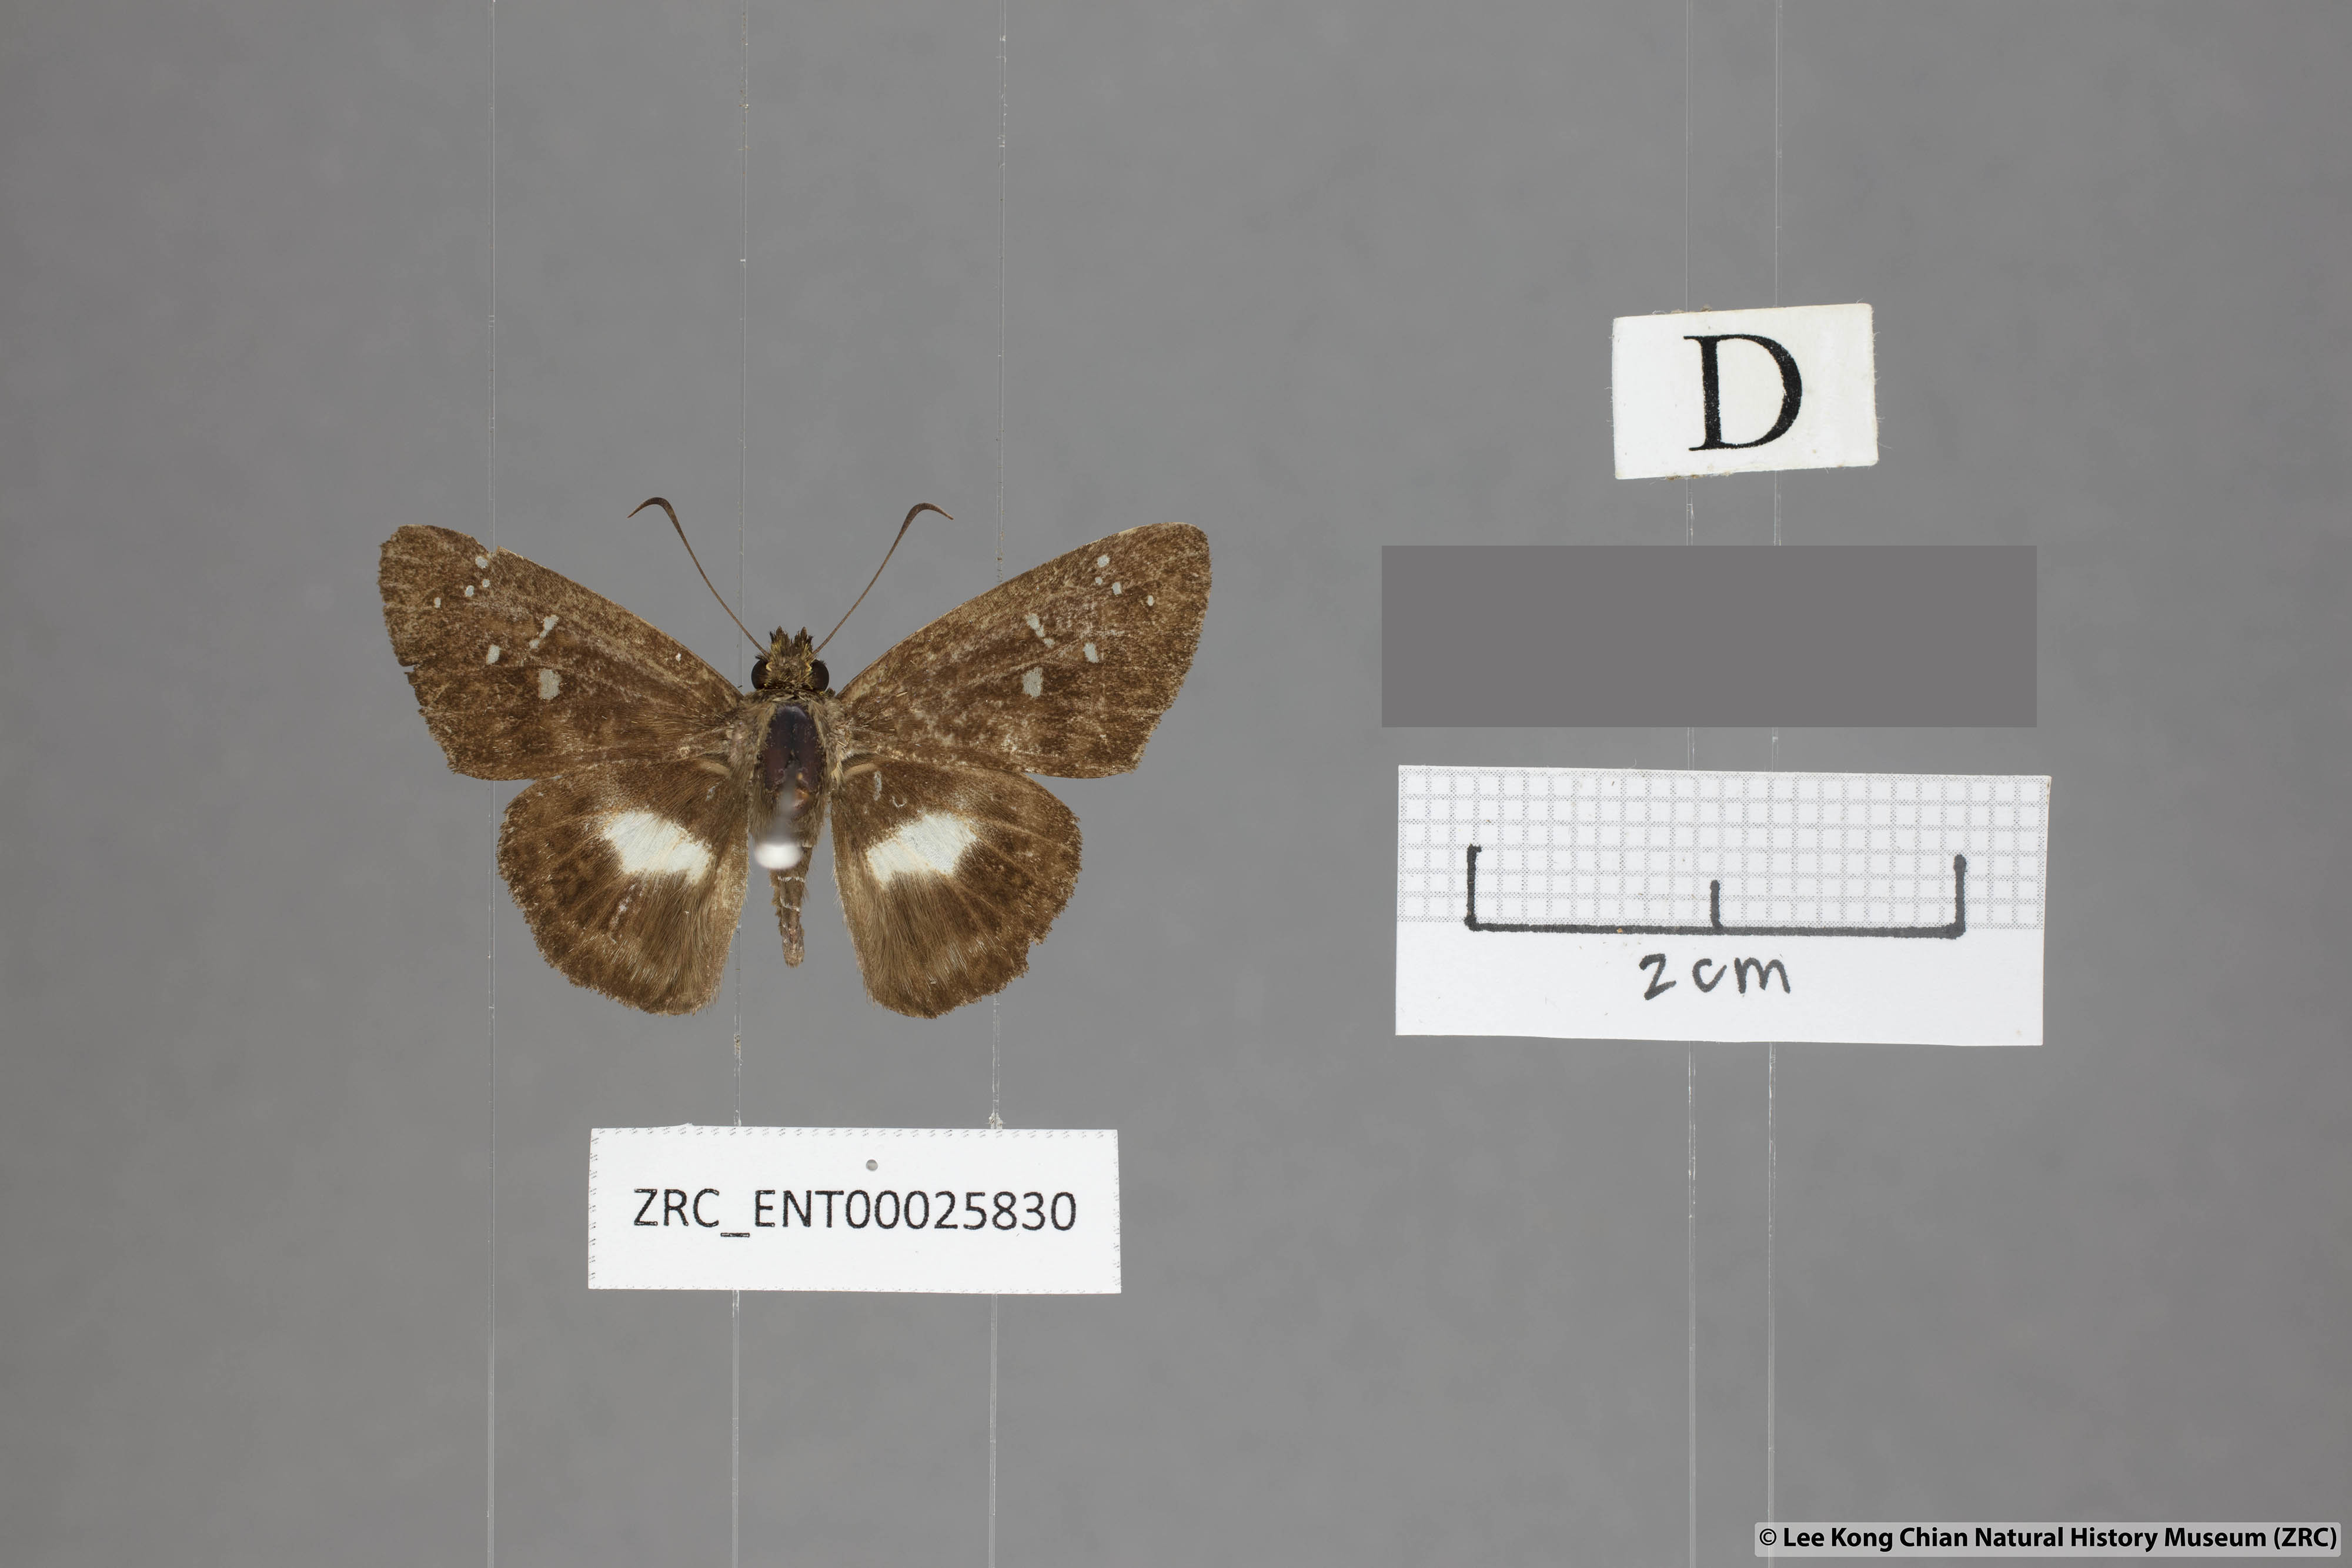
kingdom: Animalia
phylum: Arthropoda
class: Insecta
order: Lepidoptera
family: Hesperiidae
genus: Daimio
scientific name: Daimio
